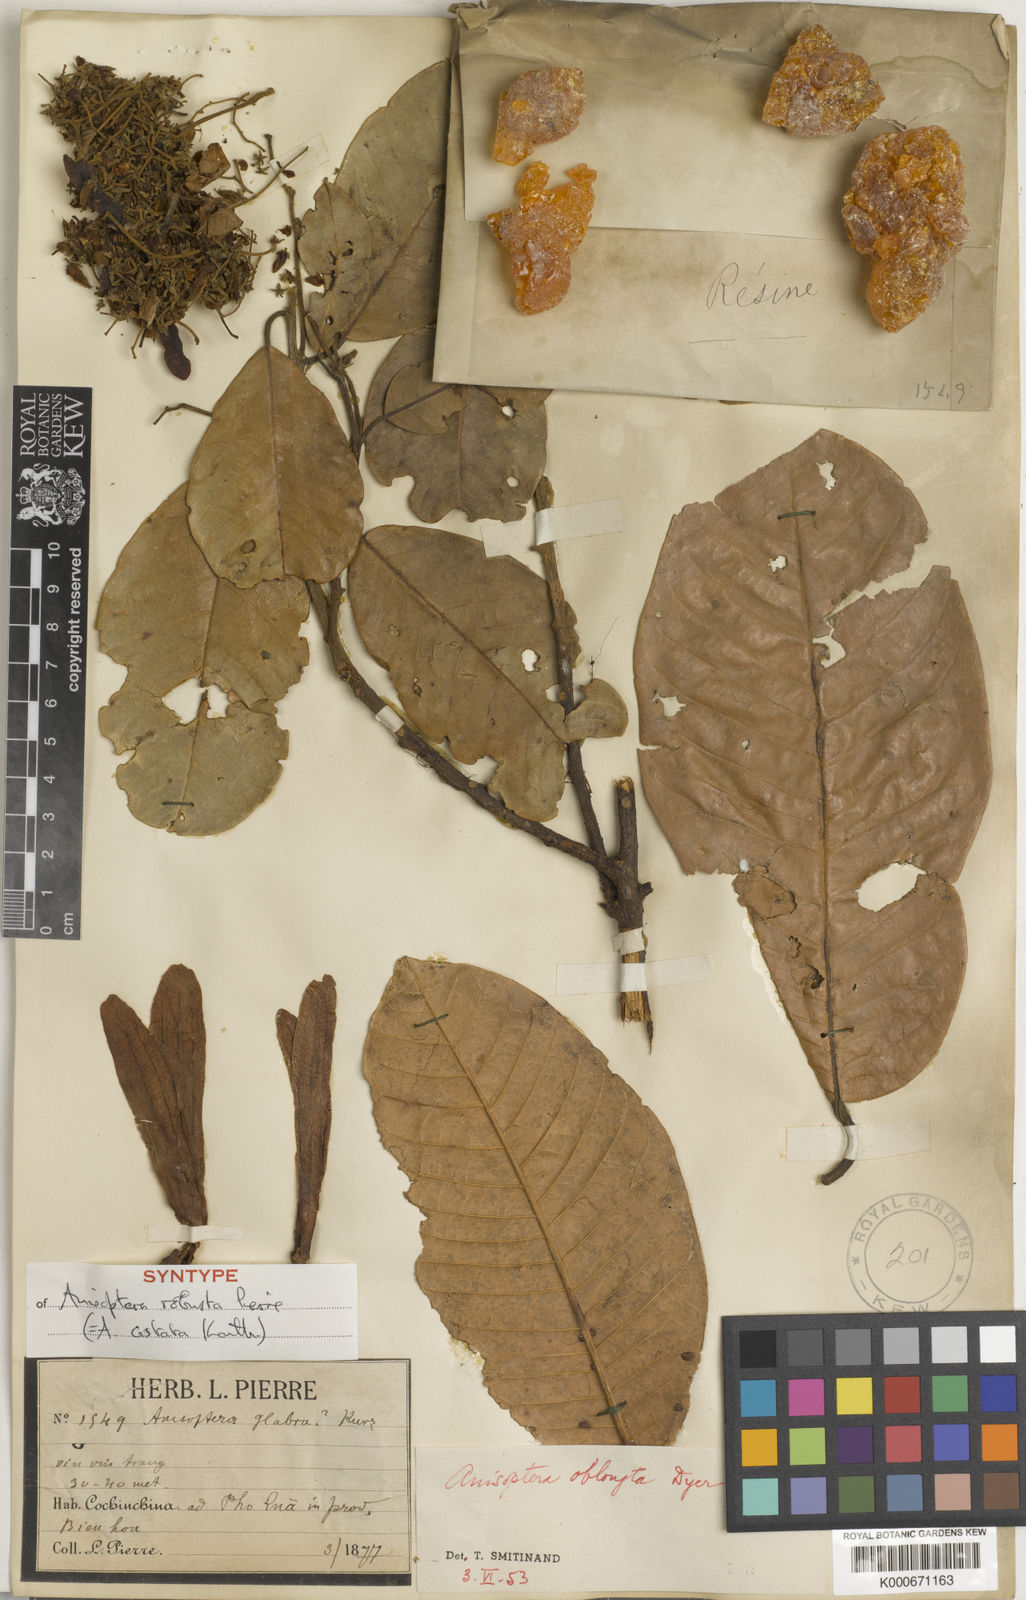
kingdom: Plantae
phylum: Tracheophyta
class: Magnoliopsida
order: Malvales
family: Dipterocarpaceae
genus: Anisoptera
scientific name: Anisoptera costata
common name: Mersawa
